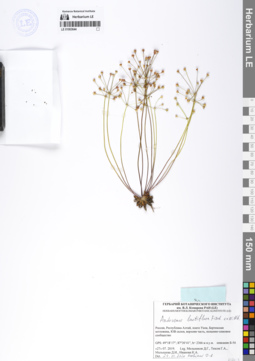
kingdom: Plantae
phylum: Tracheophyta
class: Magnoliopsida
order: Ericales
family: Primulaceae
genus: Androsace
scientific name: Androsace lactiflora
